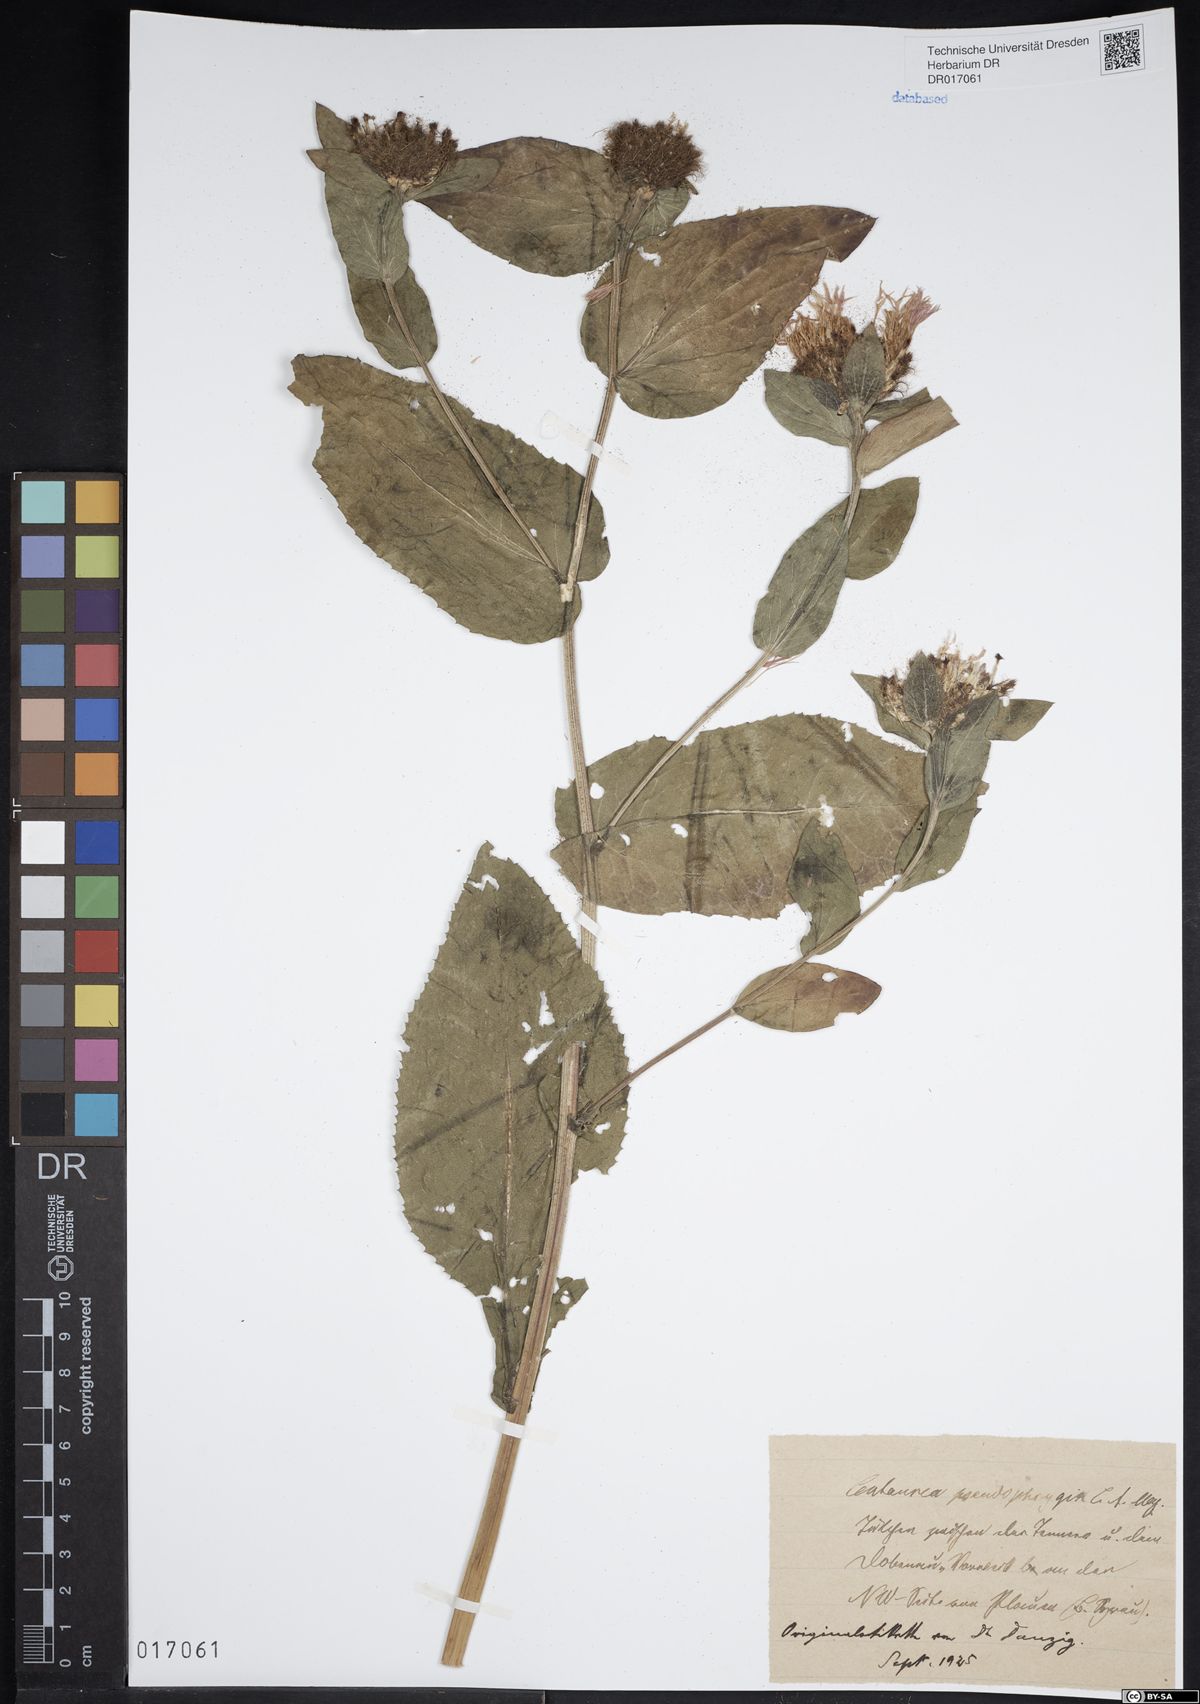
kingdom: Plantae
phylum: Tracheophyta
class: Magnoliopsida
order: Asterales
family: Asteraceae
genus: Centaurea
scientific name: Centaurea pseudophrygia
